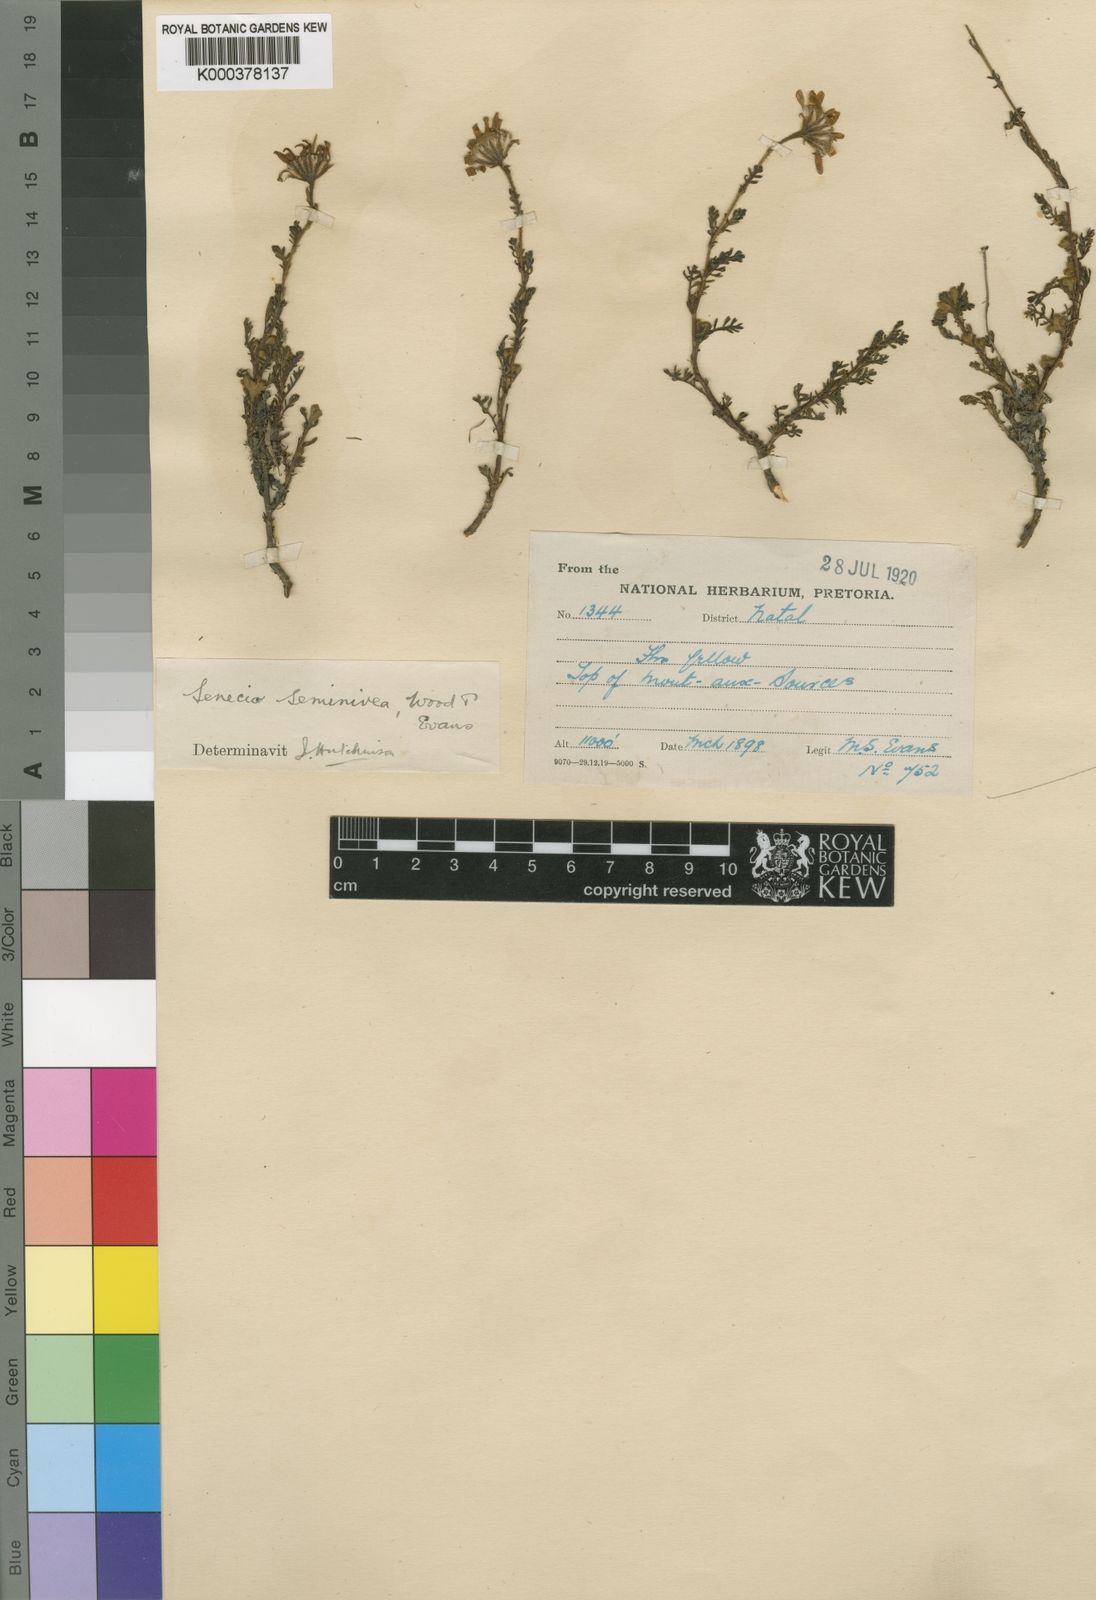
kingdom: Plantae
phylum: Tracheophyta
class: Magnoliopsida
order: Asterales
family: Asteraceae
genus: Senecio
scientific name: Senecio seminiveus
